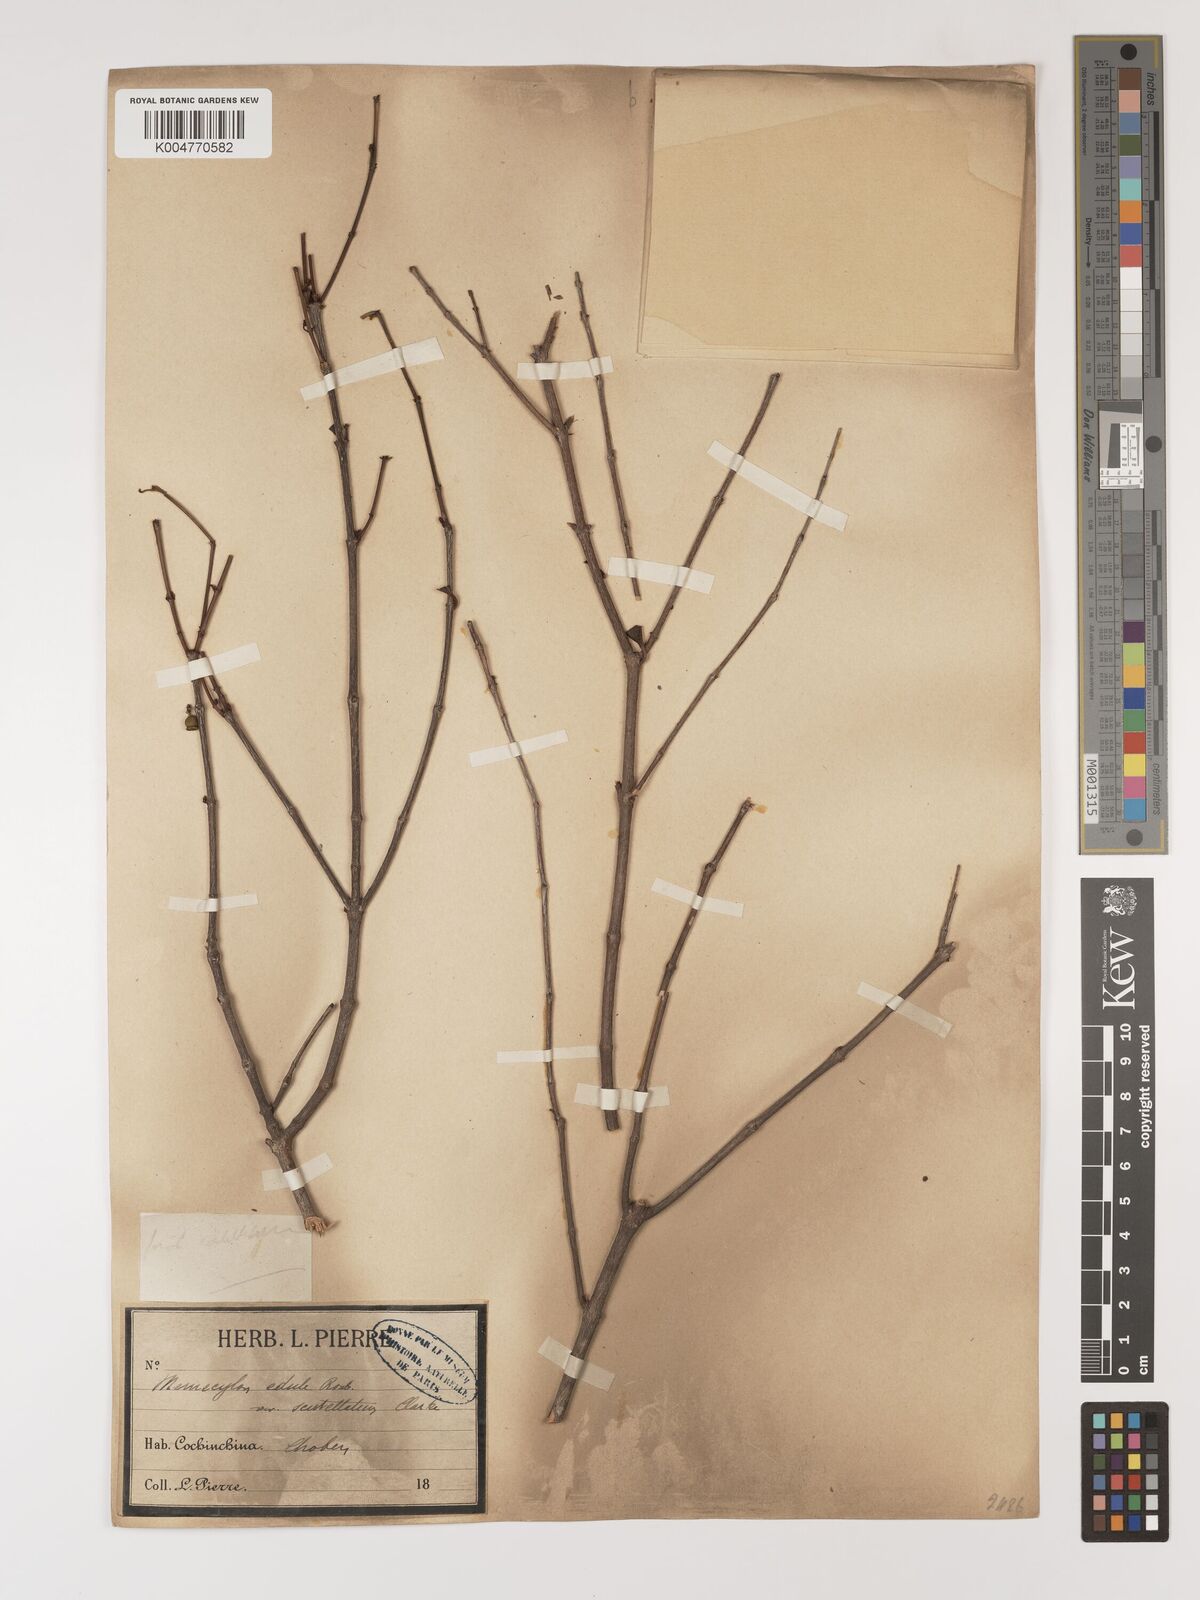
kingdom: Plantae
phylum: Tracheophyta
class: Magnoliopsida
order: Myrtales
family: Melastomataceae
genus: Memecylon
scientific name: Memecylon scutellatum
